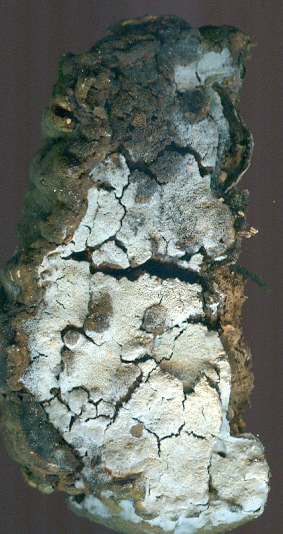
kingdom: Fungi
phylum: Basidiomycota
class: Agaricomycetes
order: Atheliales
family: Atheliaceae
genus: Athelia
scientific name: Athelia decipiens
